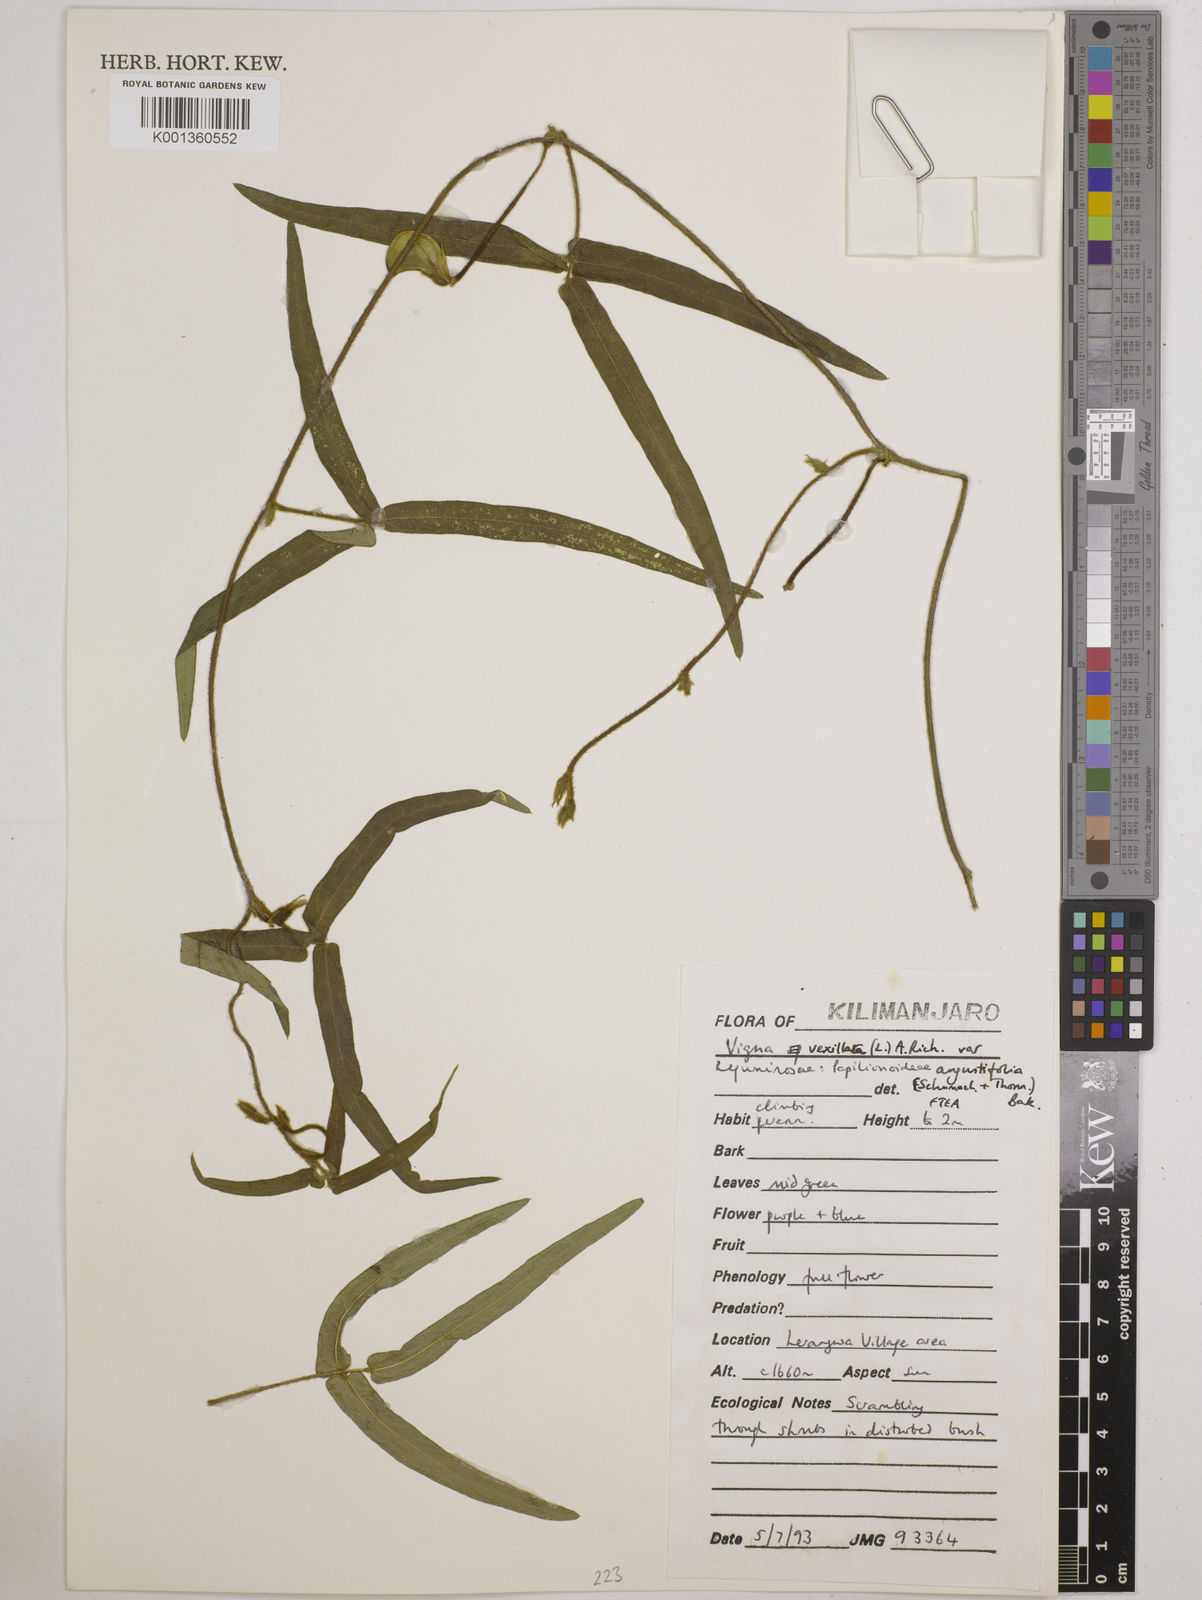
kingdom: Plantae
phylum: Tracheophyta
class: Magnoliopsida
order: Fabales
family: Fabaceae
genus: Vigna
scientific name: Vigna vexillata
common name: Zombi pea
